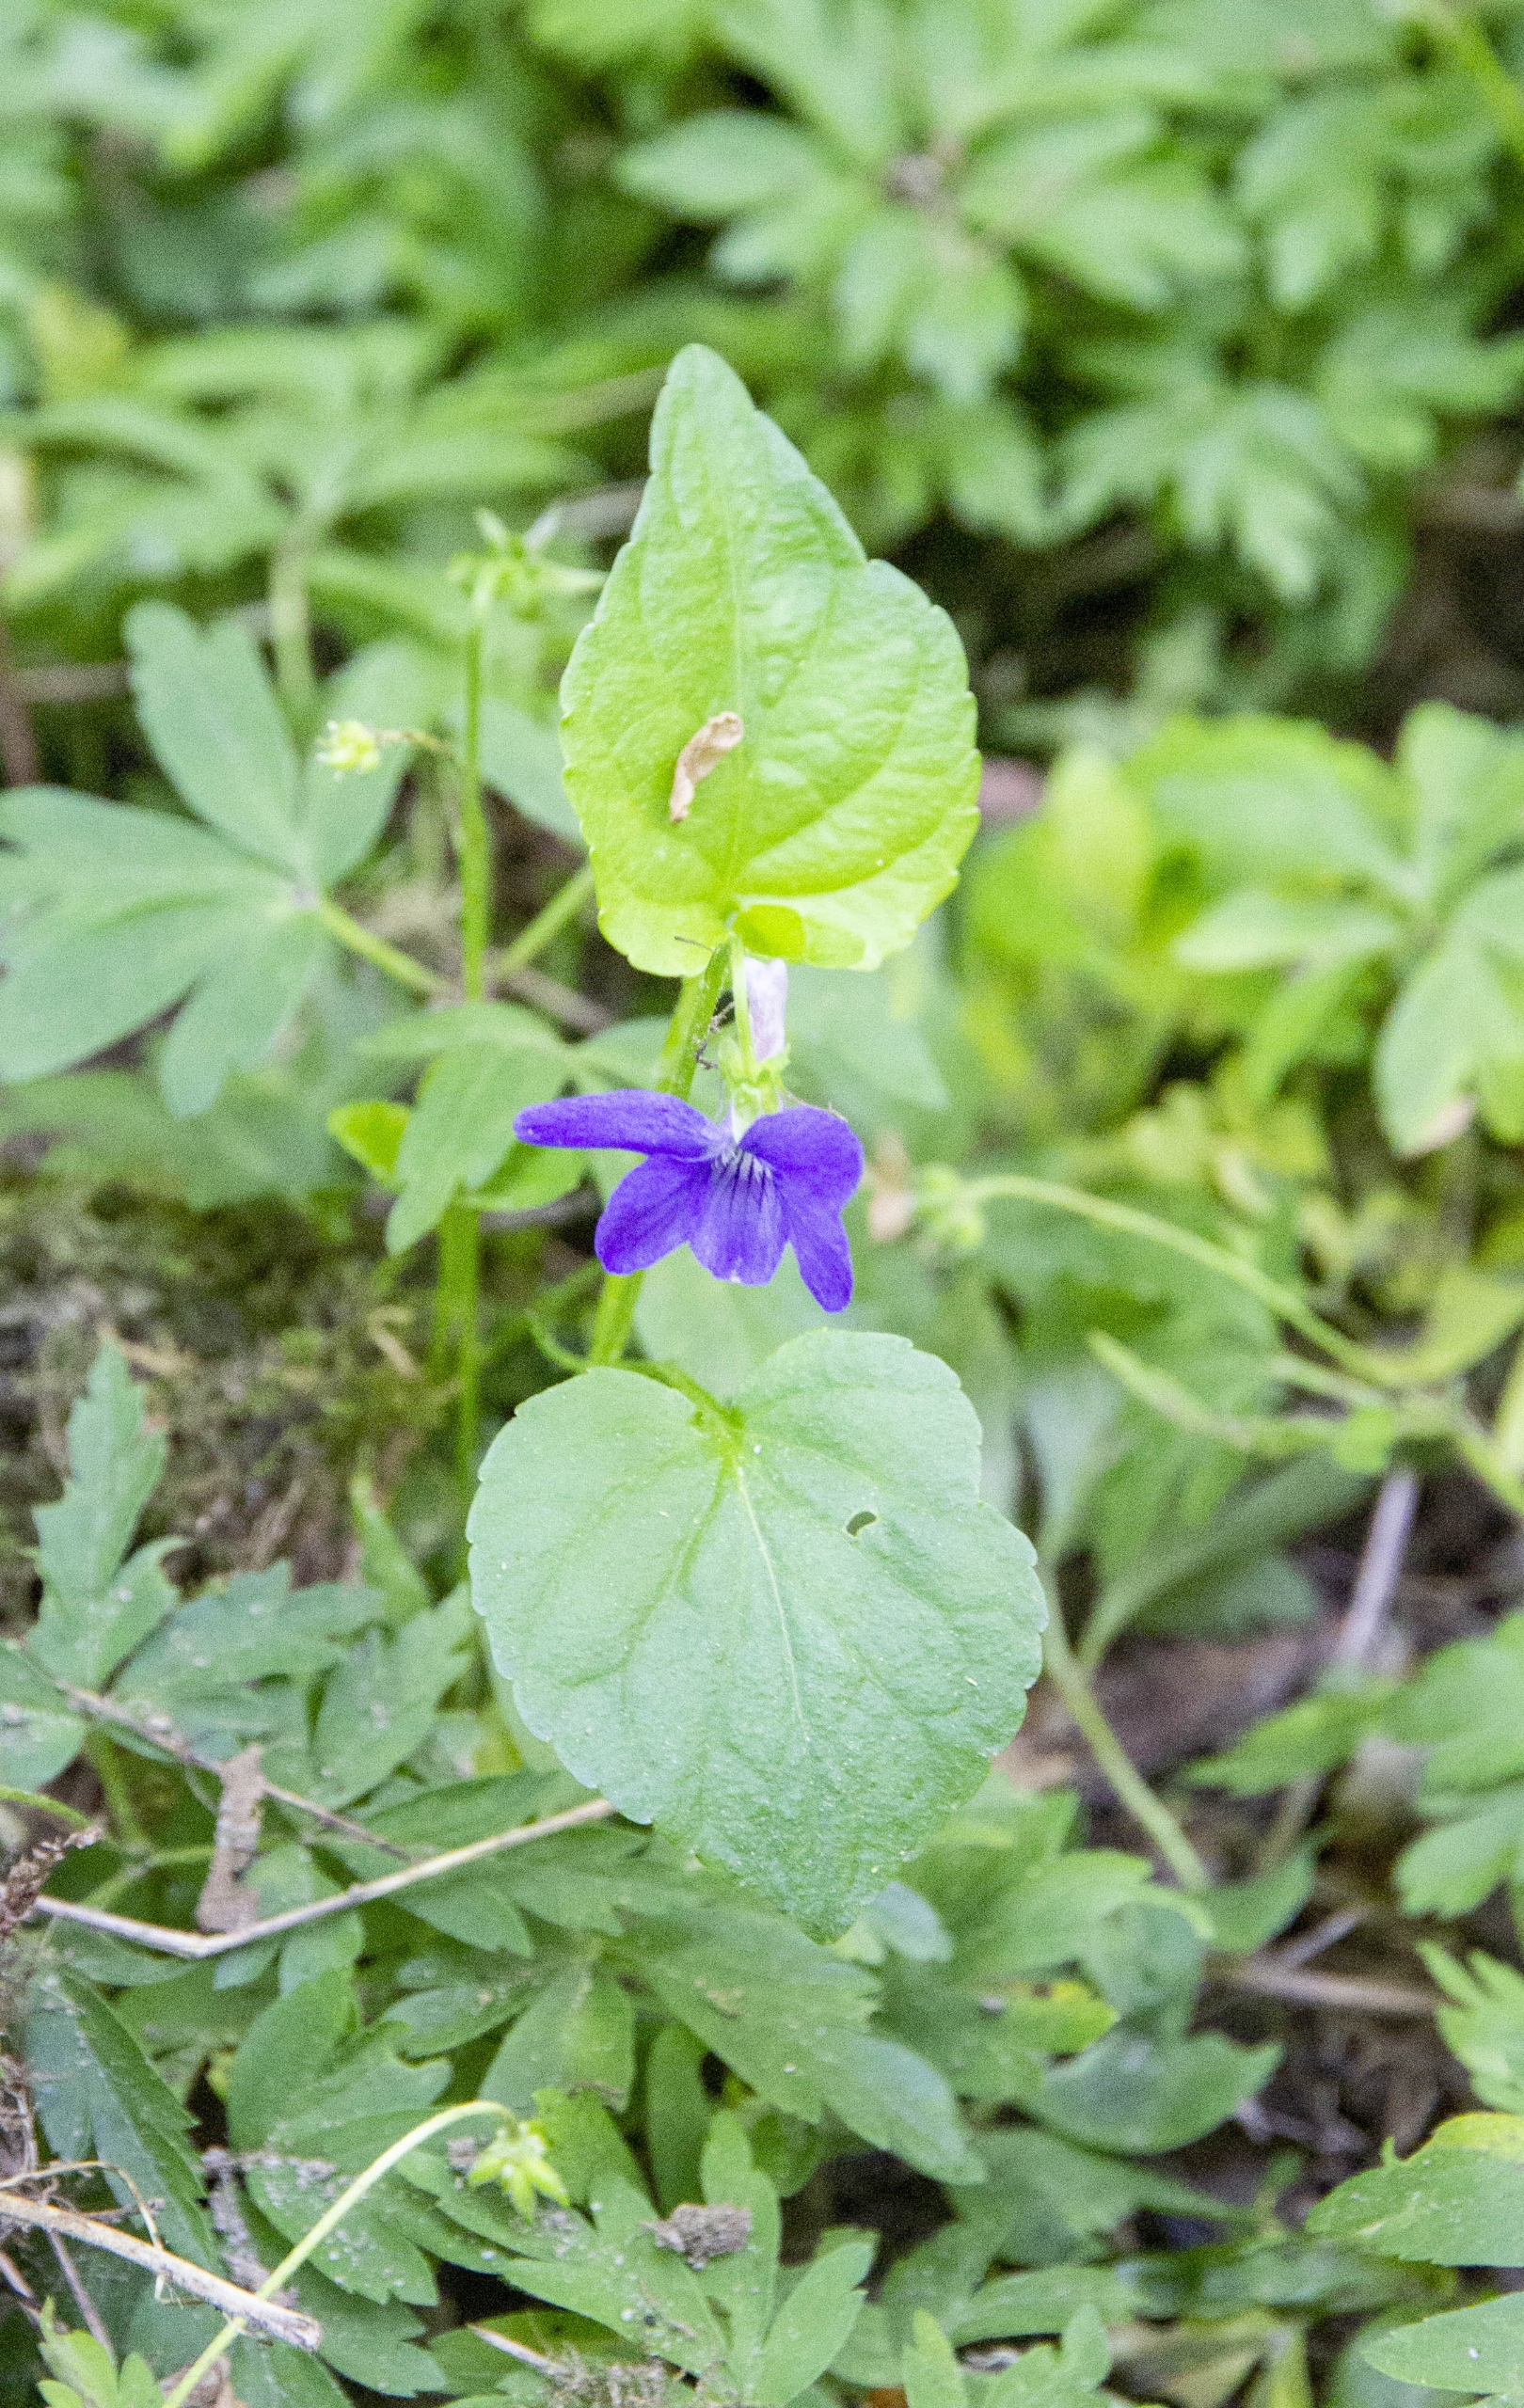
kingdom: Plantae
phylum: Tracheophyta
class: Magnoliopsida
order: Malpighiales
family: Violaceae
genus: Viola
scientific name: Viola riviniana
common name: Krat-viol
